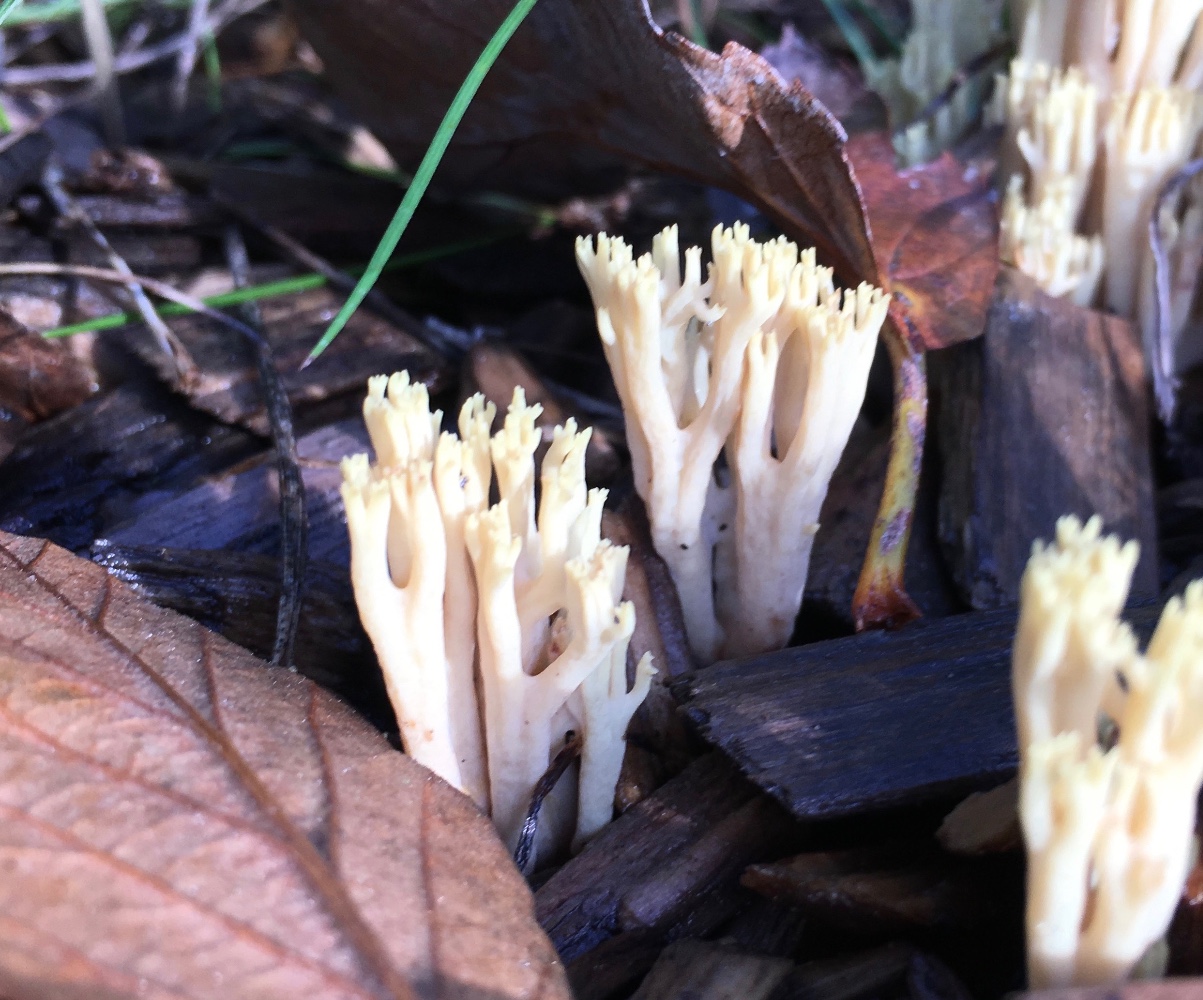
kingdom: Fungi
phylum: Basidiomycota
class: Agaricomycetes
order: Gomphales
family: Gomphaceae
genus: Ramaria
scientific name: Ramaria stricta
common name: rank koralsvamp
